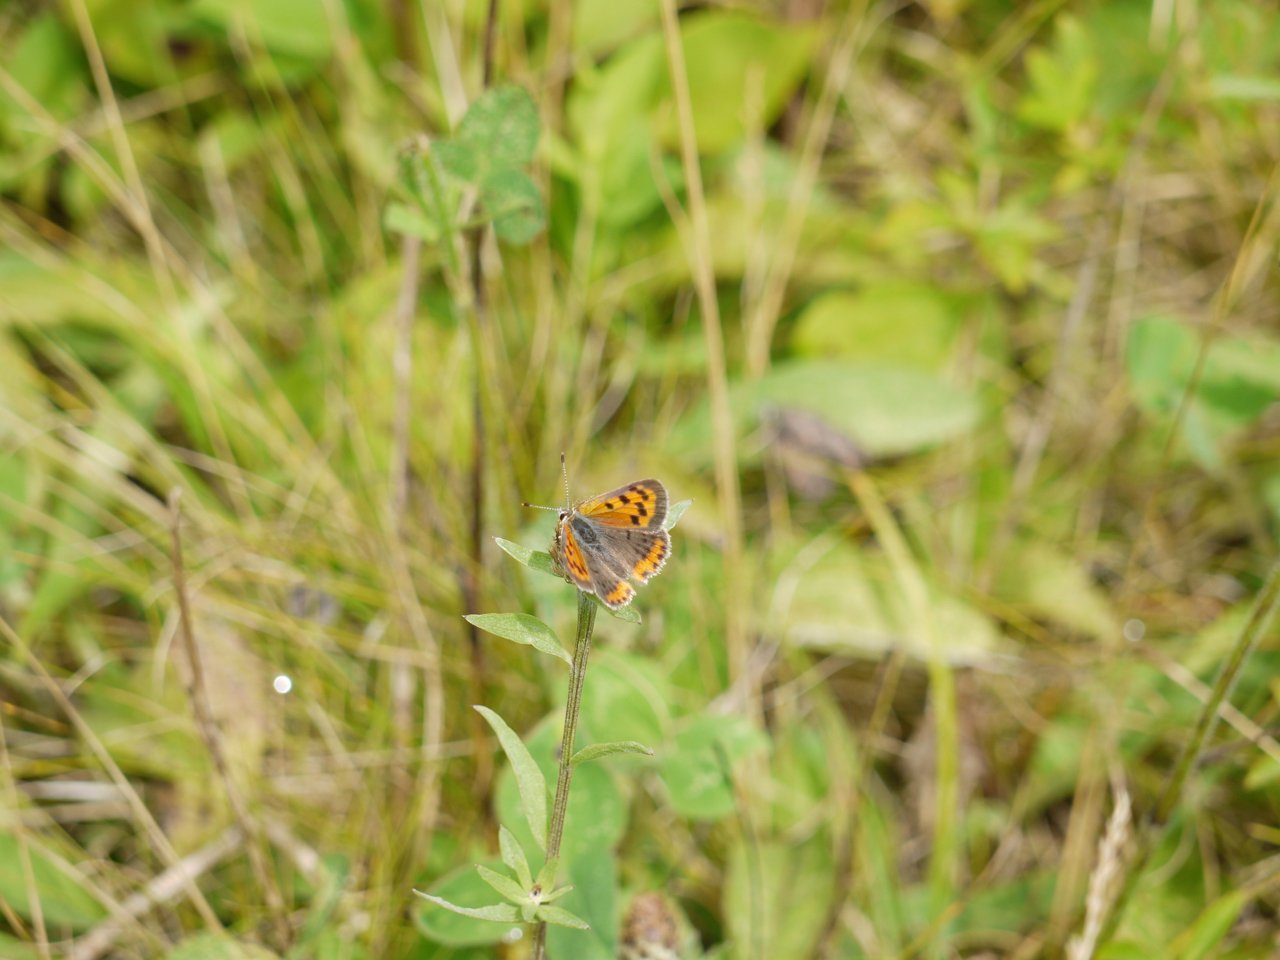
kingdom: Animalia
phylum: Arthropoda
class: Insecta
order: Lepidoptera
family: Lycaenidae
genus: Lycaena
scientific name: Lycaena phlaeas
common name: American Copper
